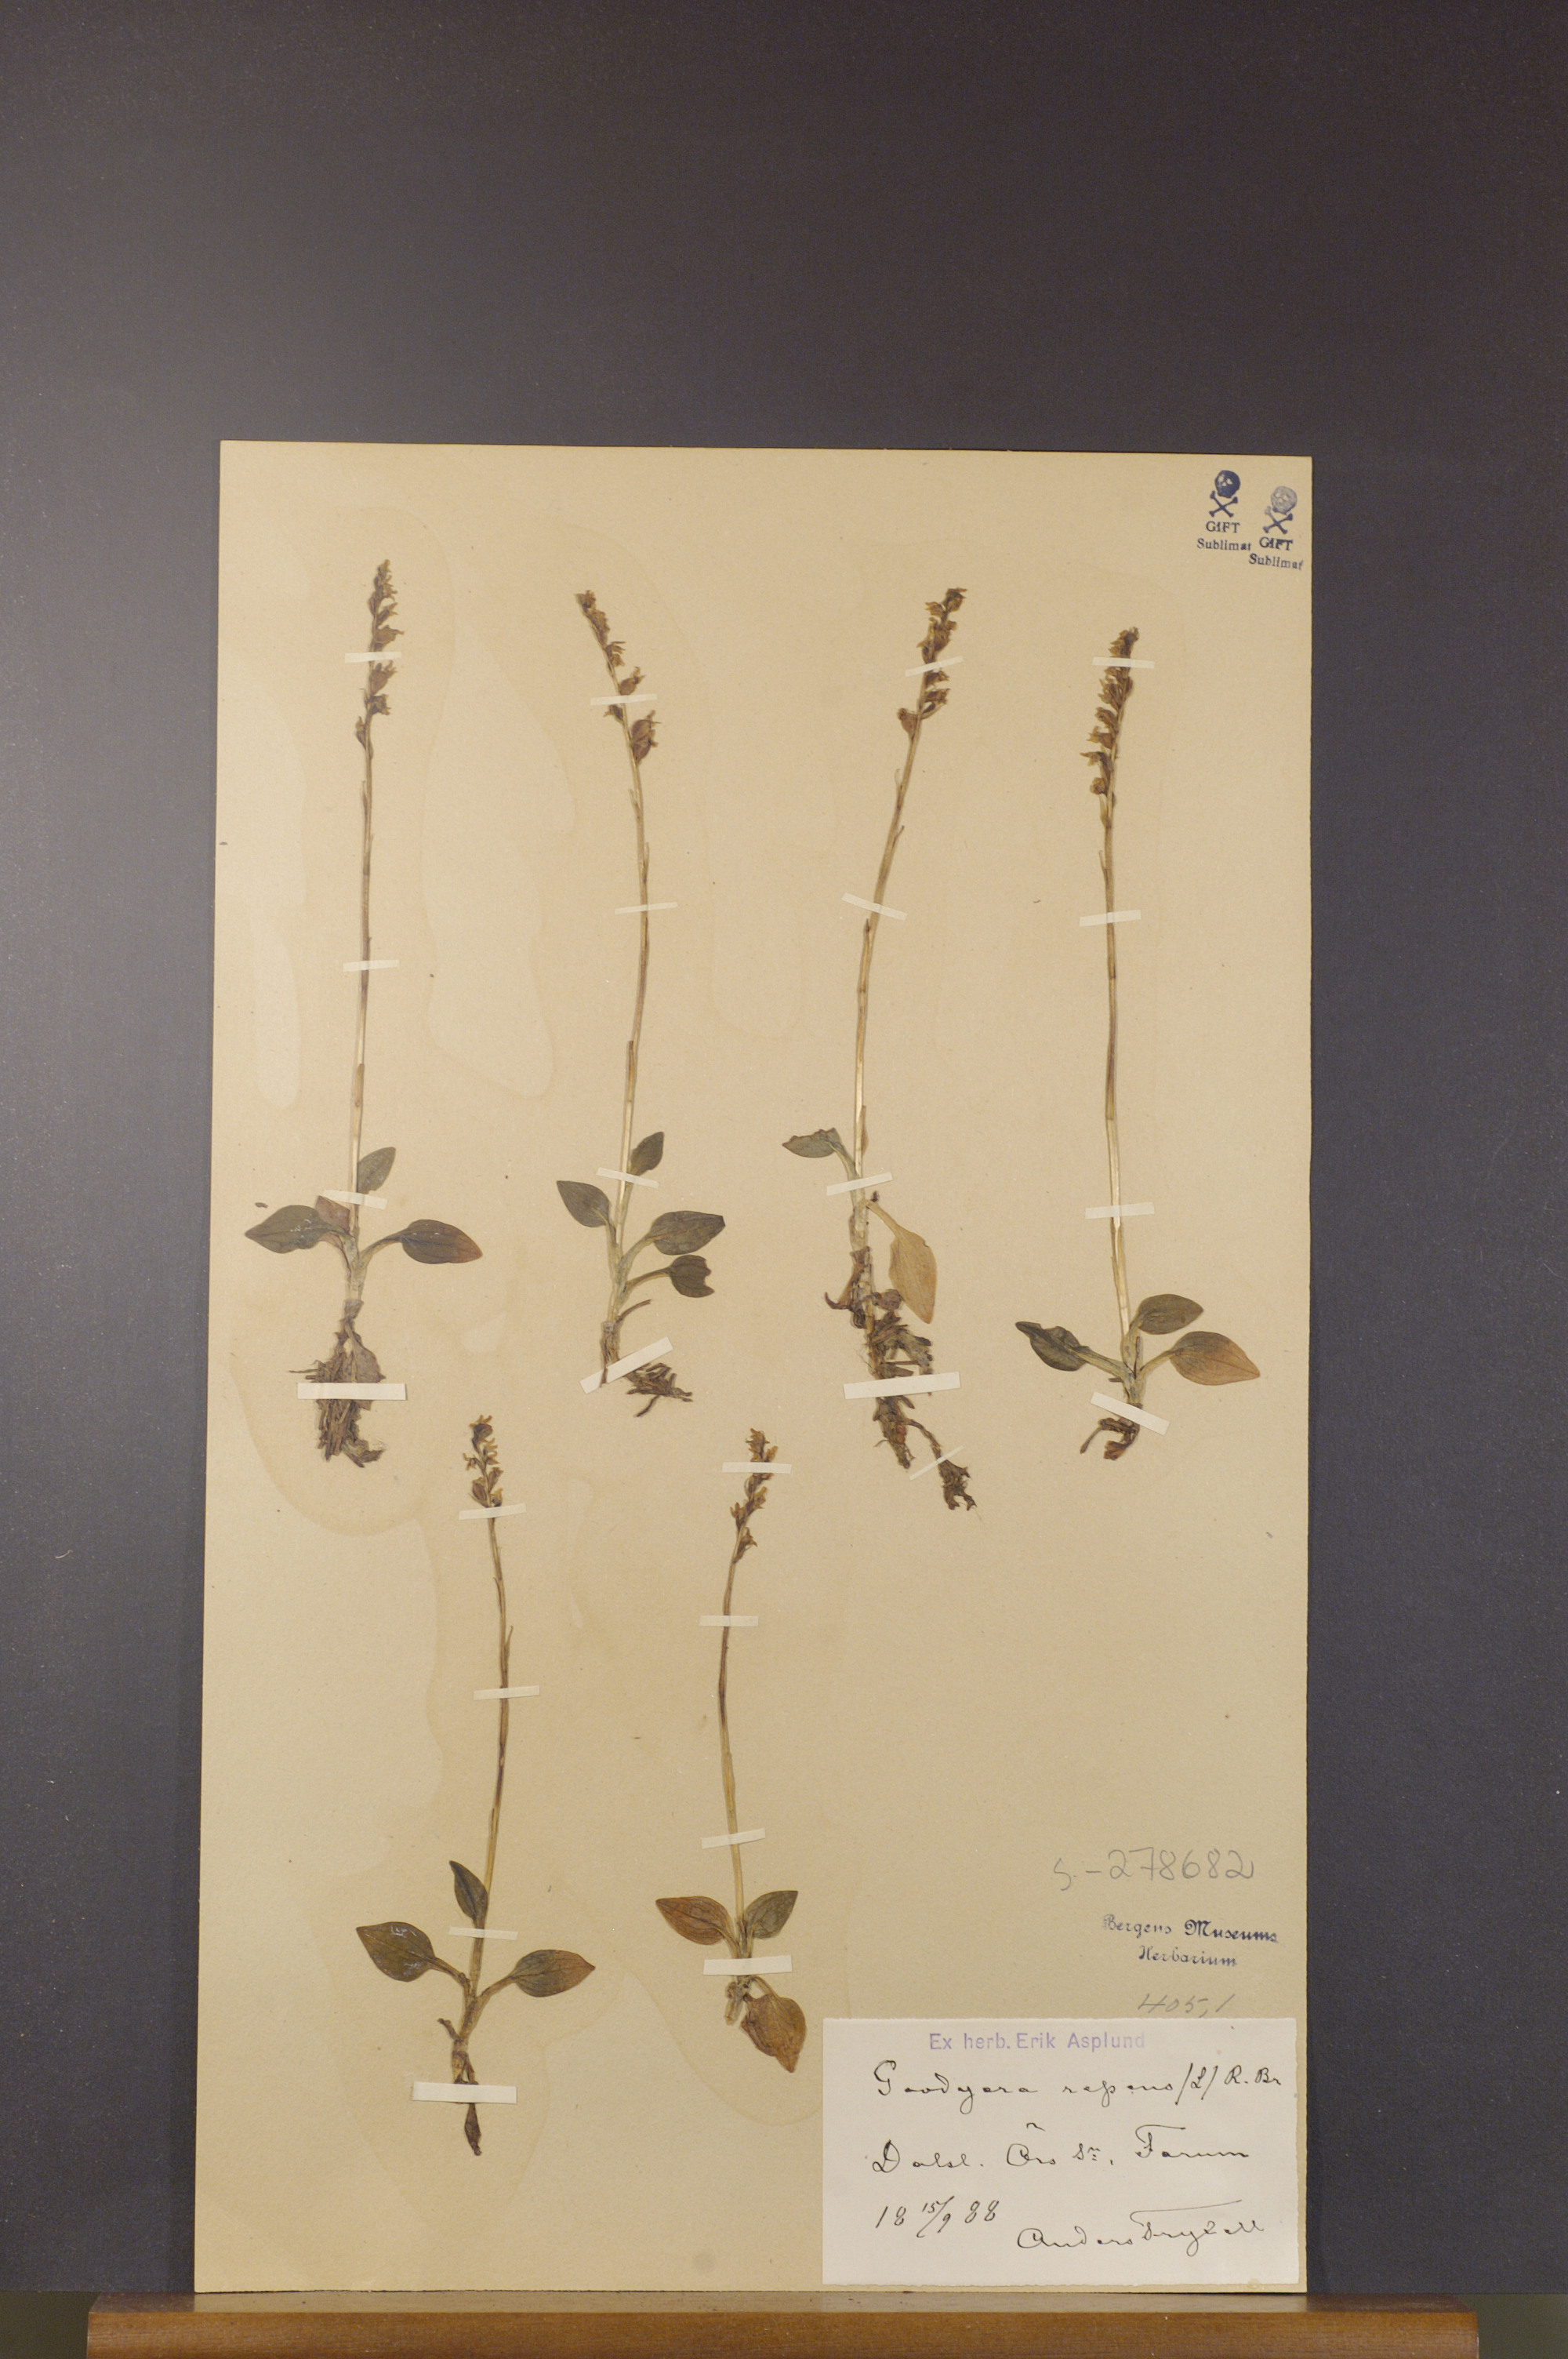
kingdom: Plantae
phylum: Tracheophyta
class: Liliopsida
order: Asparagales
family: Orchidaceae
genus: Goodyera
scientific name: Goodyera repens
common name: Creeping lady's-tresses
